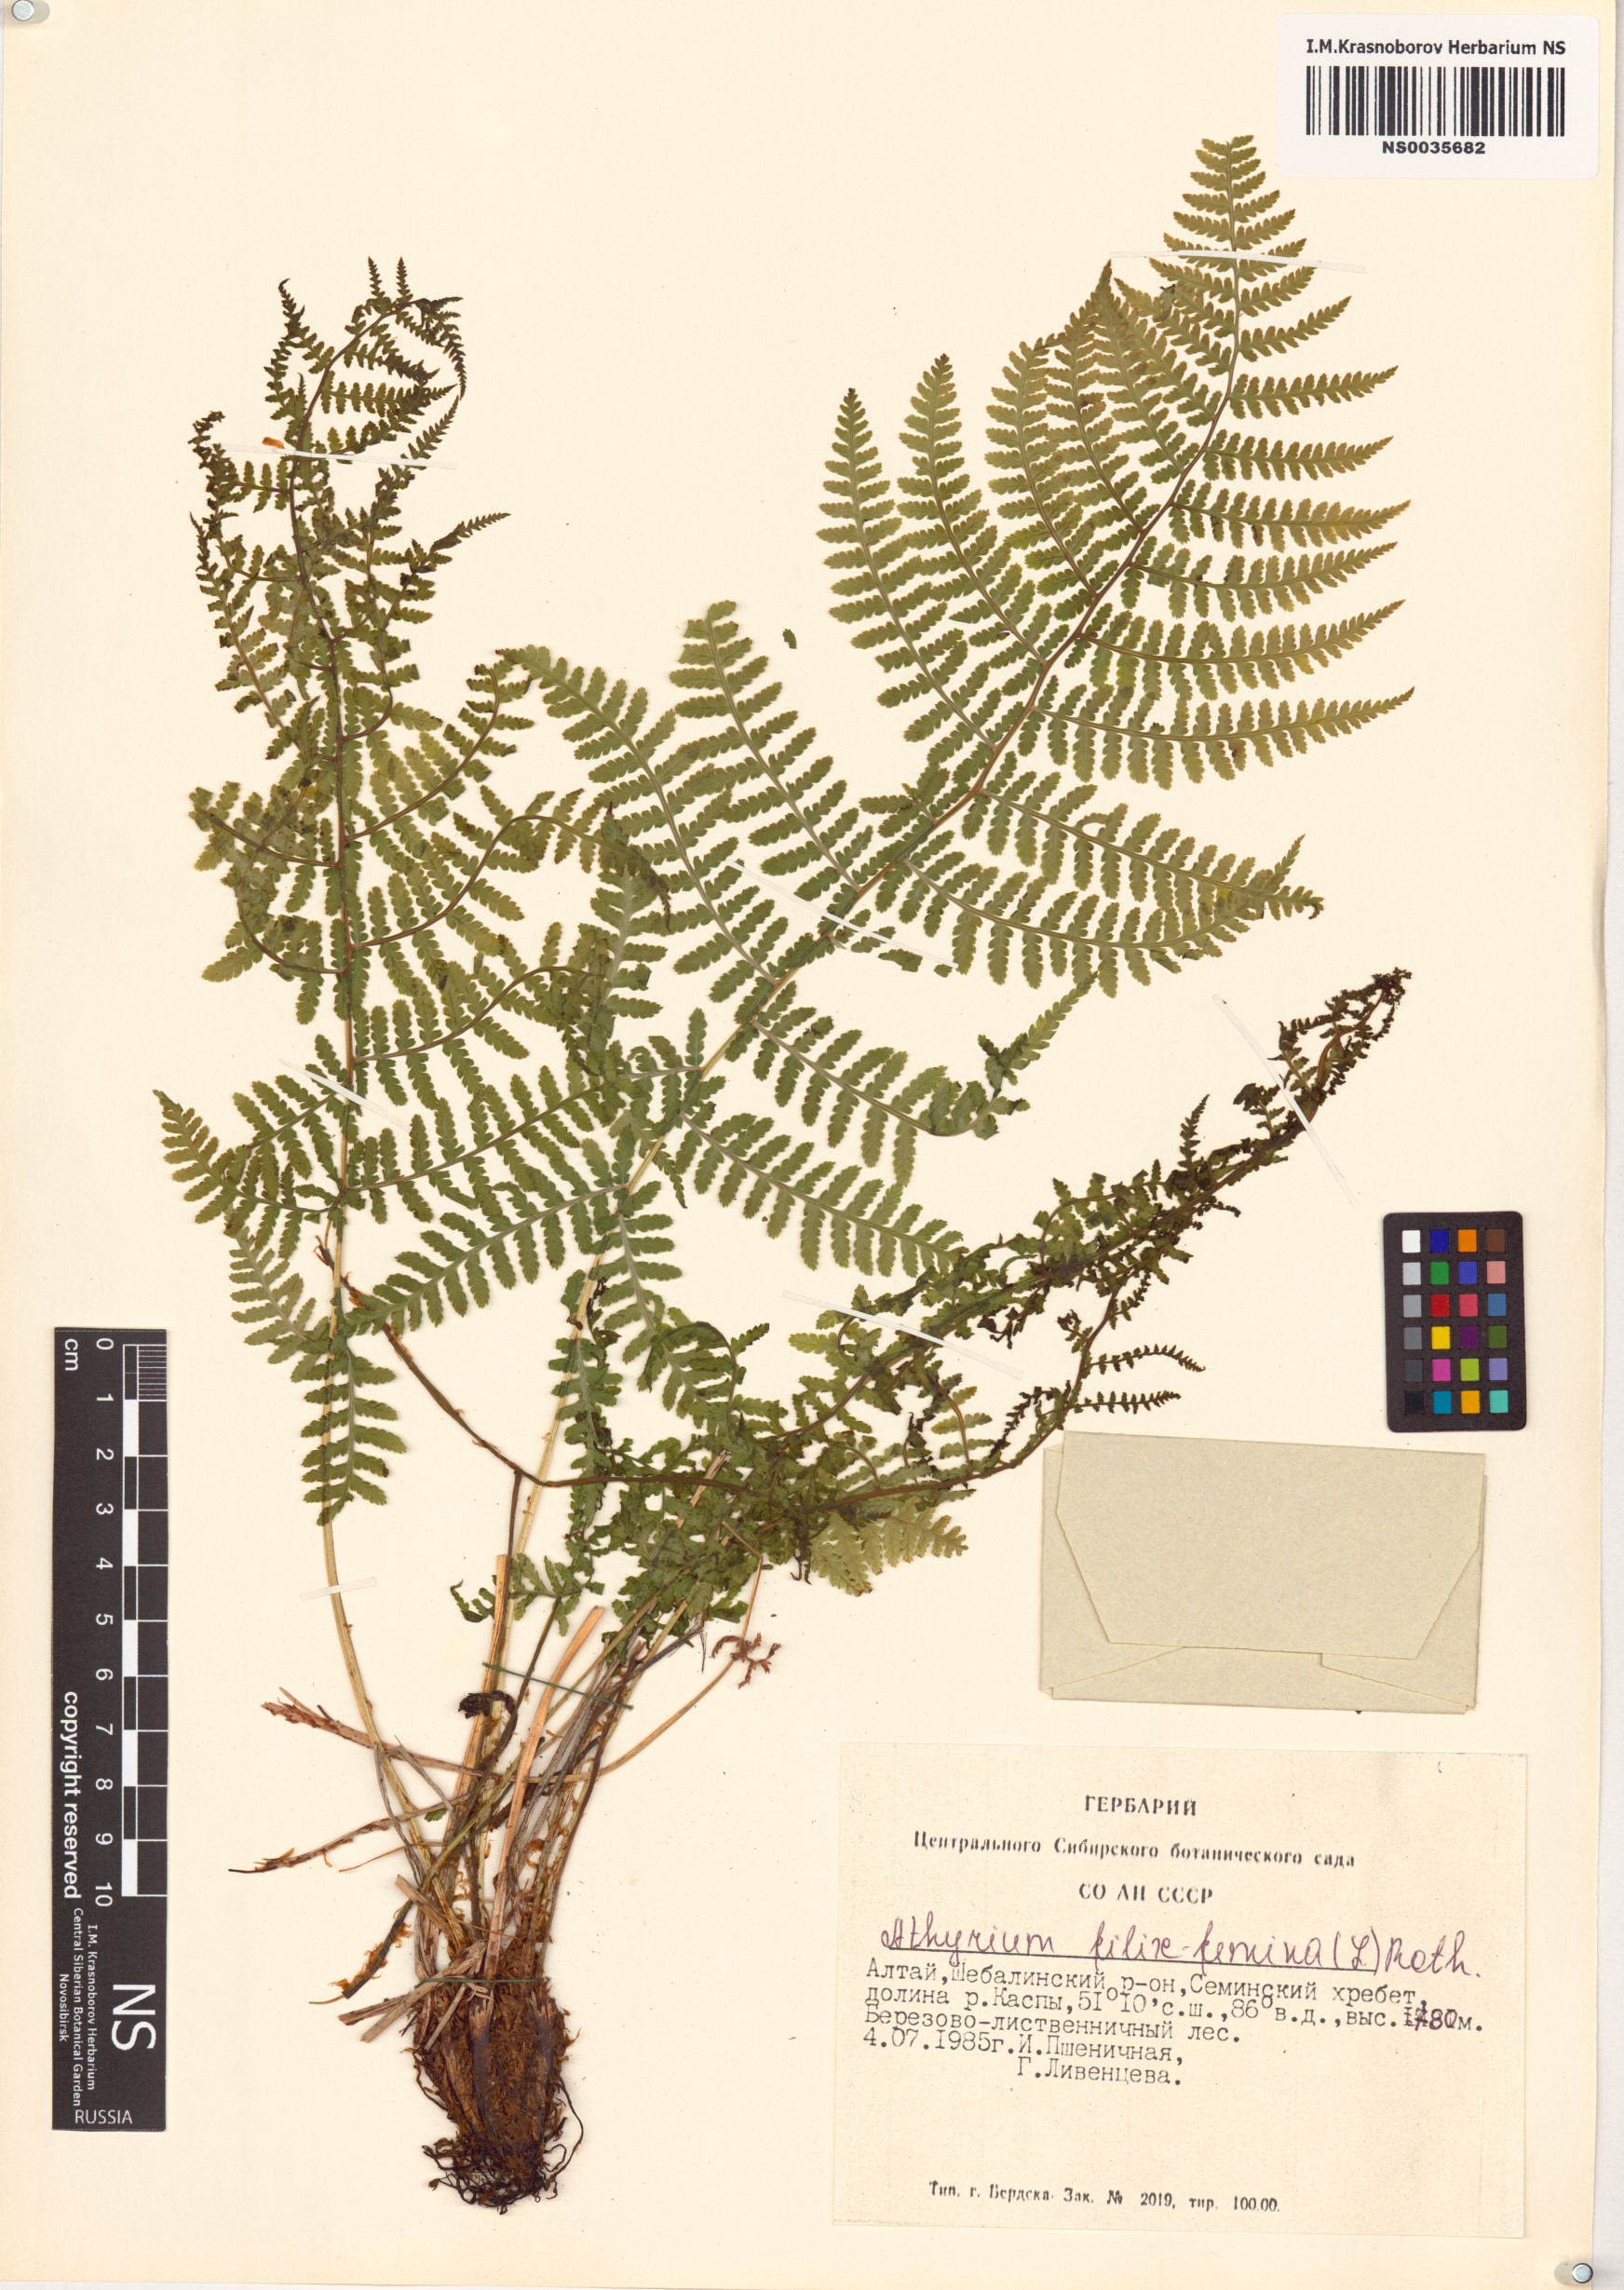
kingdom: Plantae
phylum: Tracheophyta
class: Polypodiopsida
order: Polypodiales
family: Athyriaceae
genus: Athyrium
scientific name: Athyrium filix-femina
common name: Lady fern
